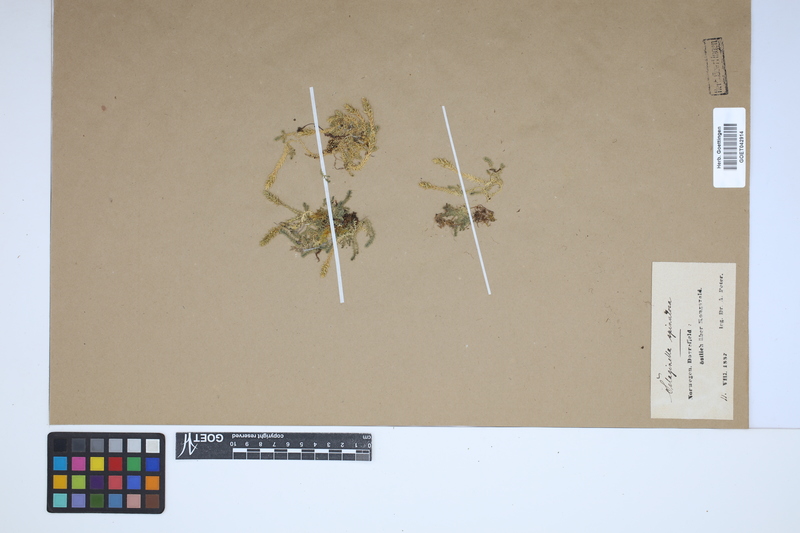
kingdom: Plantae
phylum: Tracheophyta
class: Lycopodiopsida
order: Selaginellales
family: Selaginellaceae
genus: Selaginella
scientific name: Selaginella selaginoides
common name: Prickly mountain-moss
